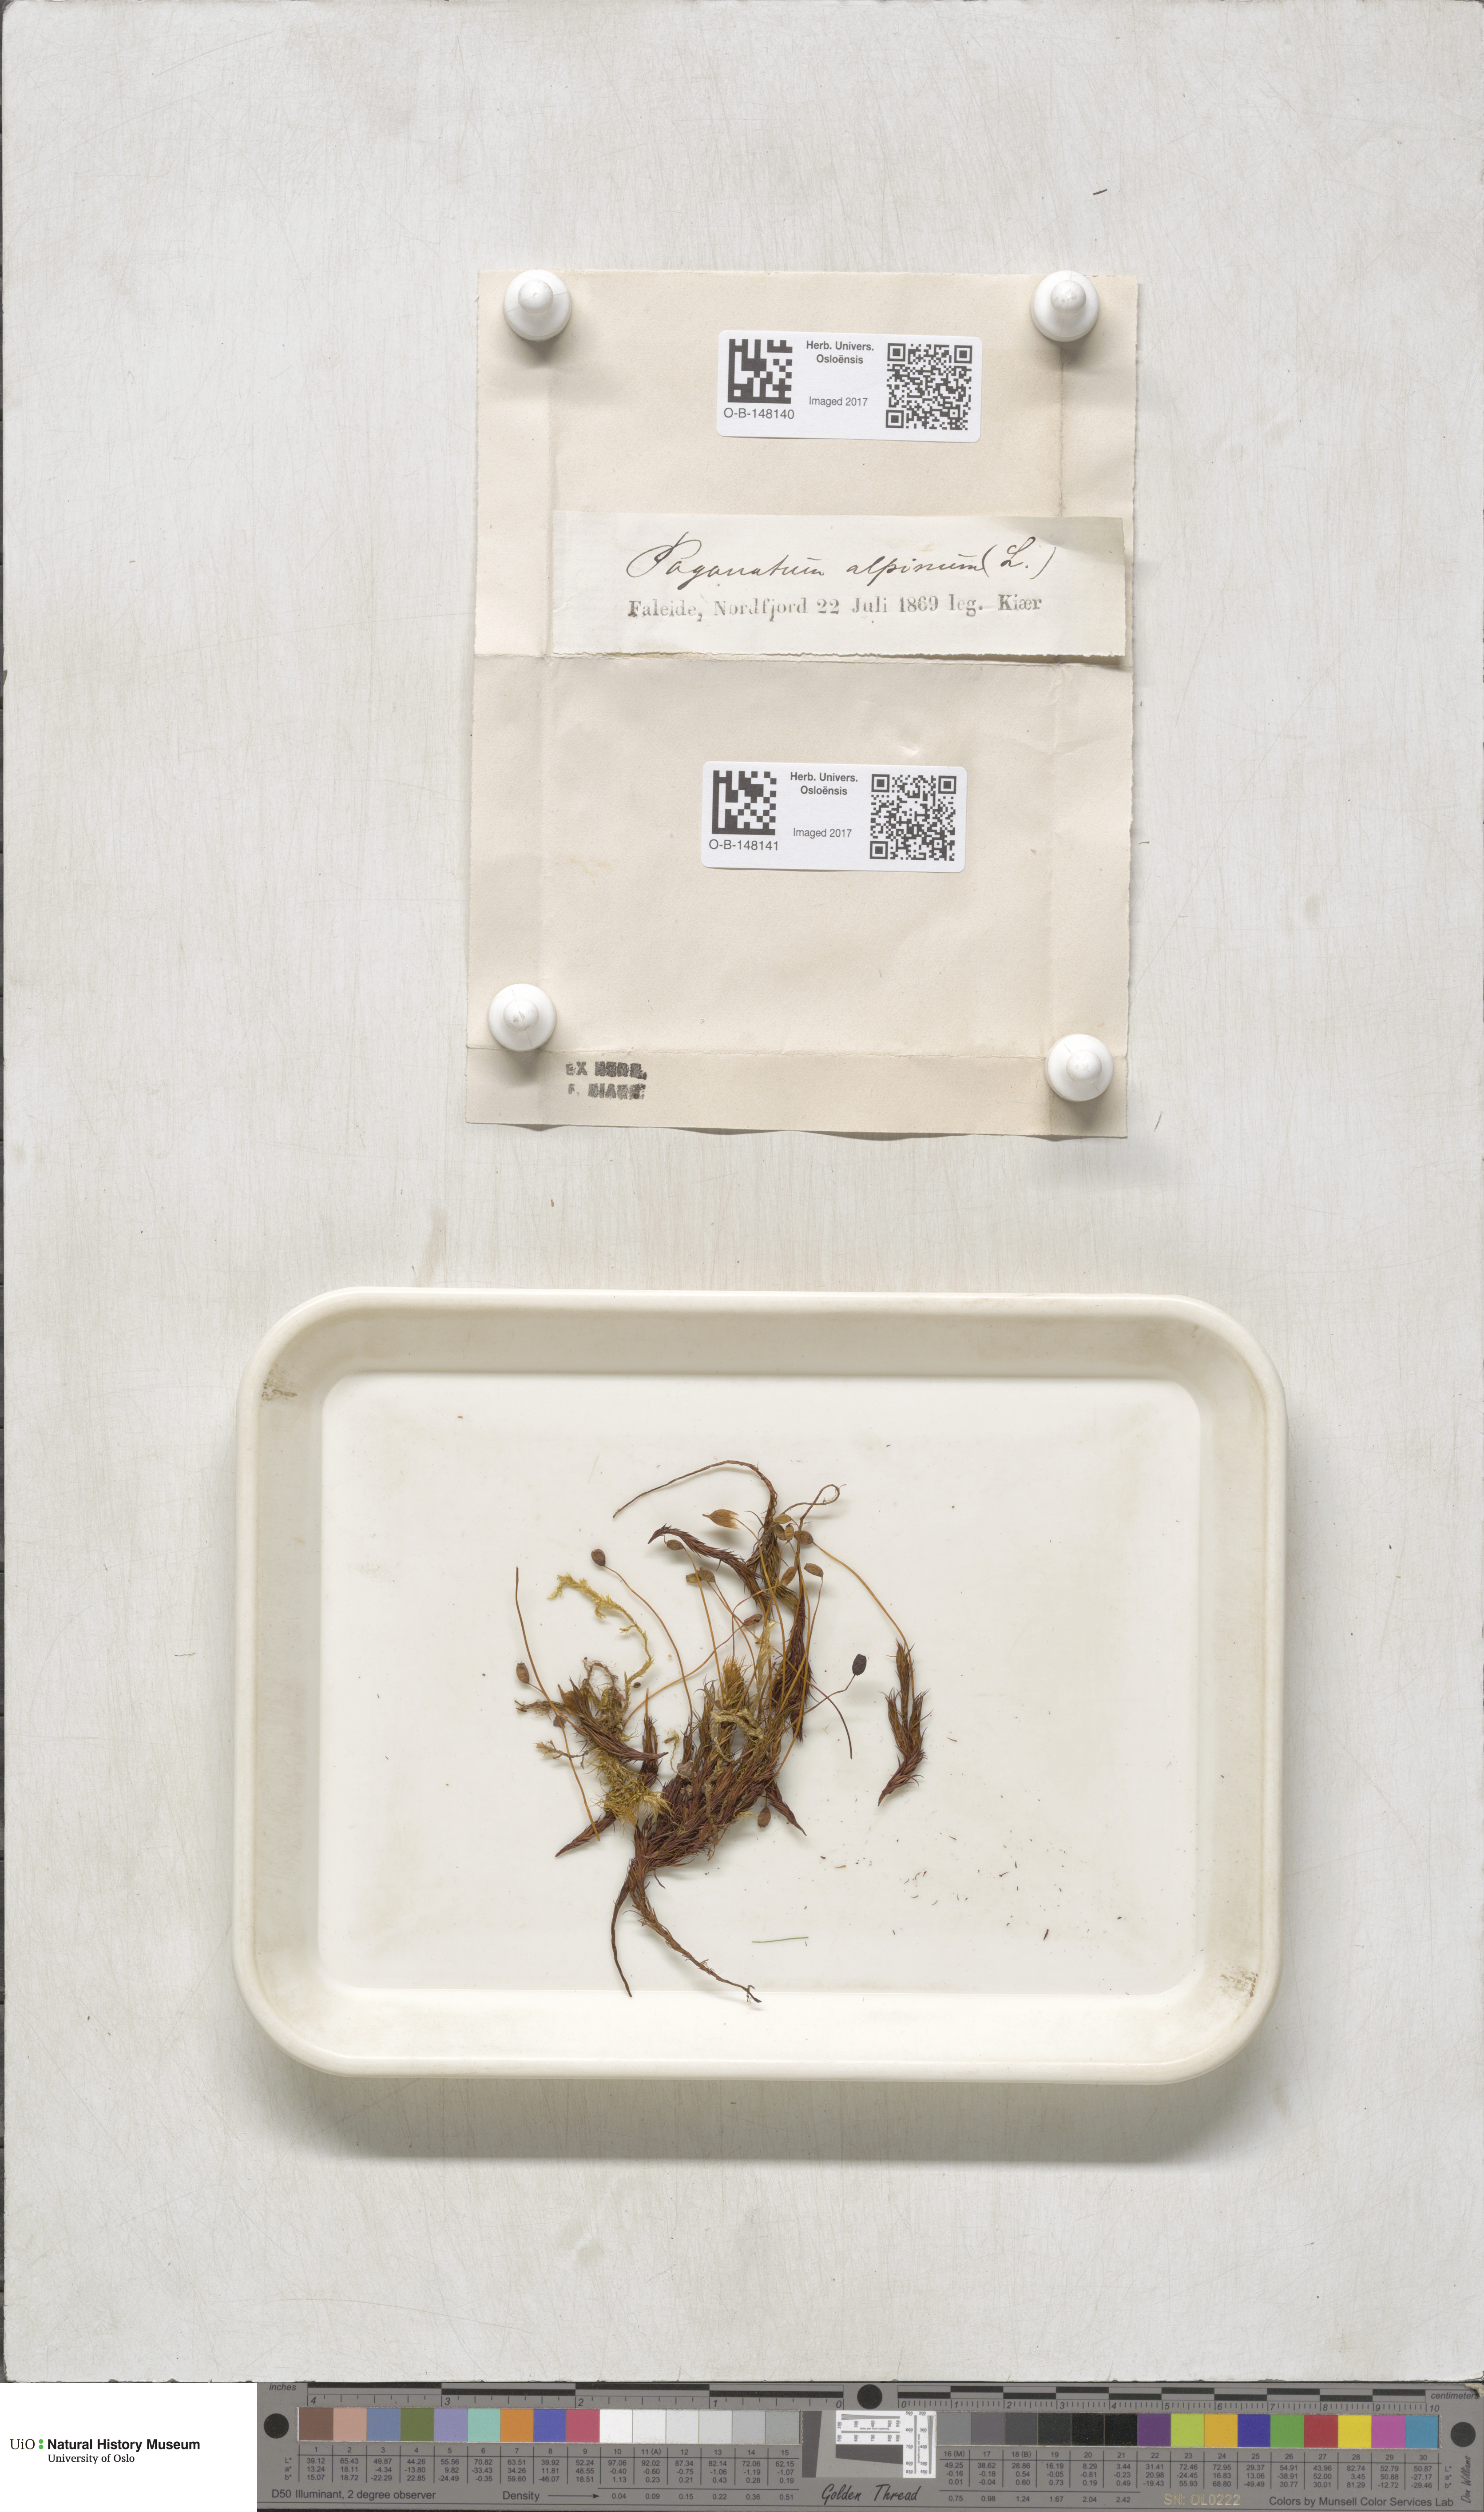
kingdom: Plantae
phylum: Bryophyta
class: Polytrichopsida
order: Polytrichales
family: Polytrichaceae
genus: Polytrichastrum
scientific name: Polytrichastrum alpinum
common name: Alpine haircap
